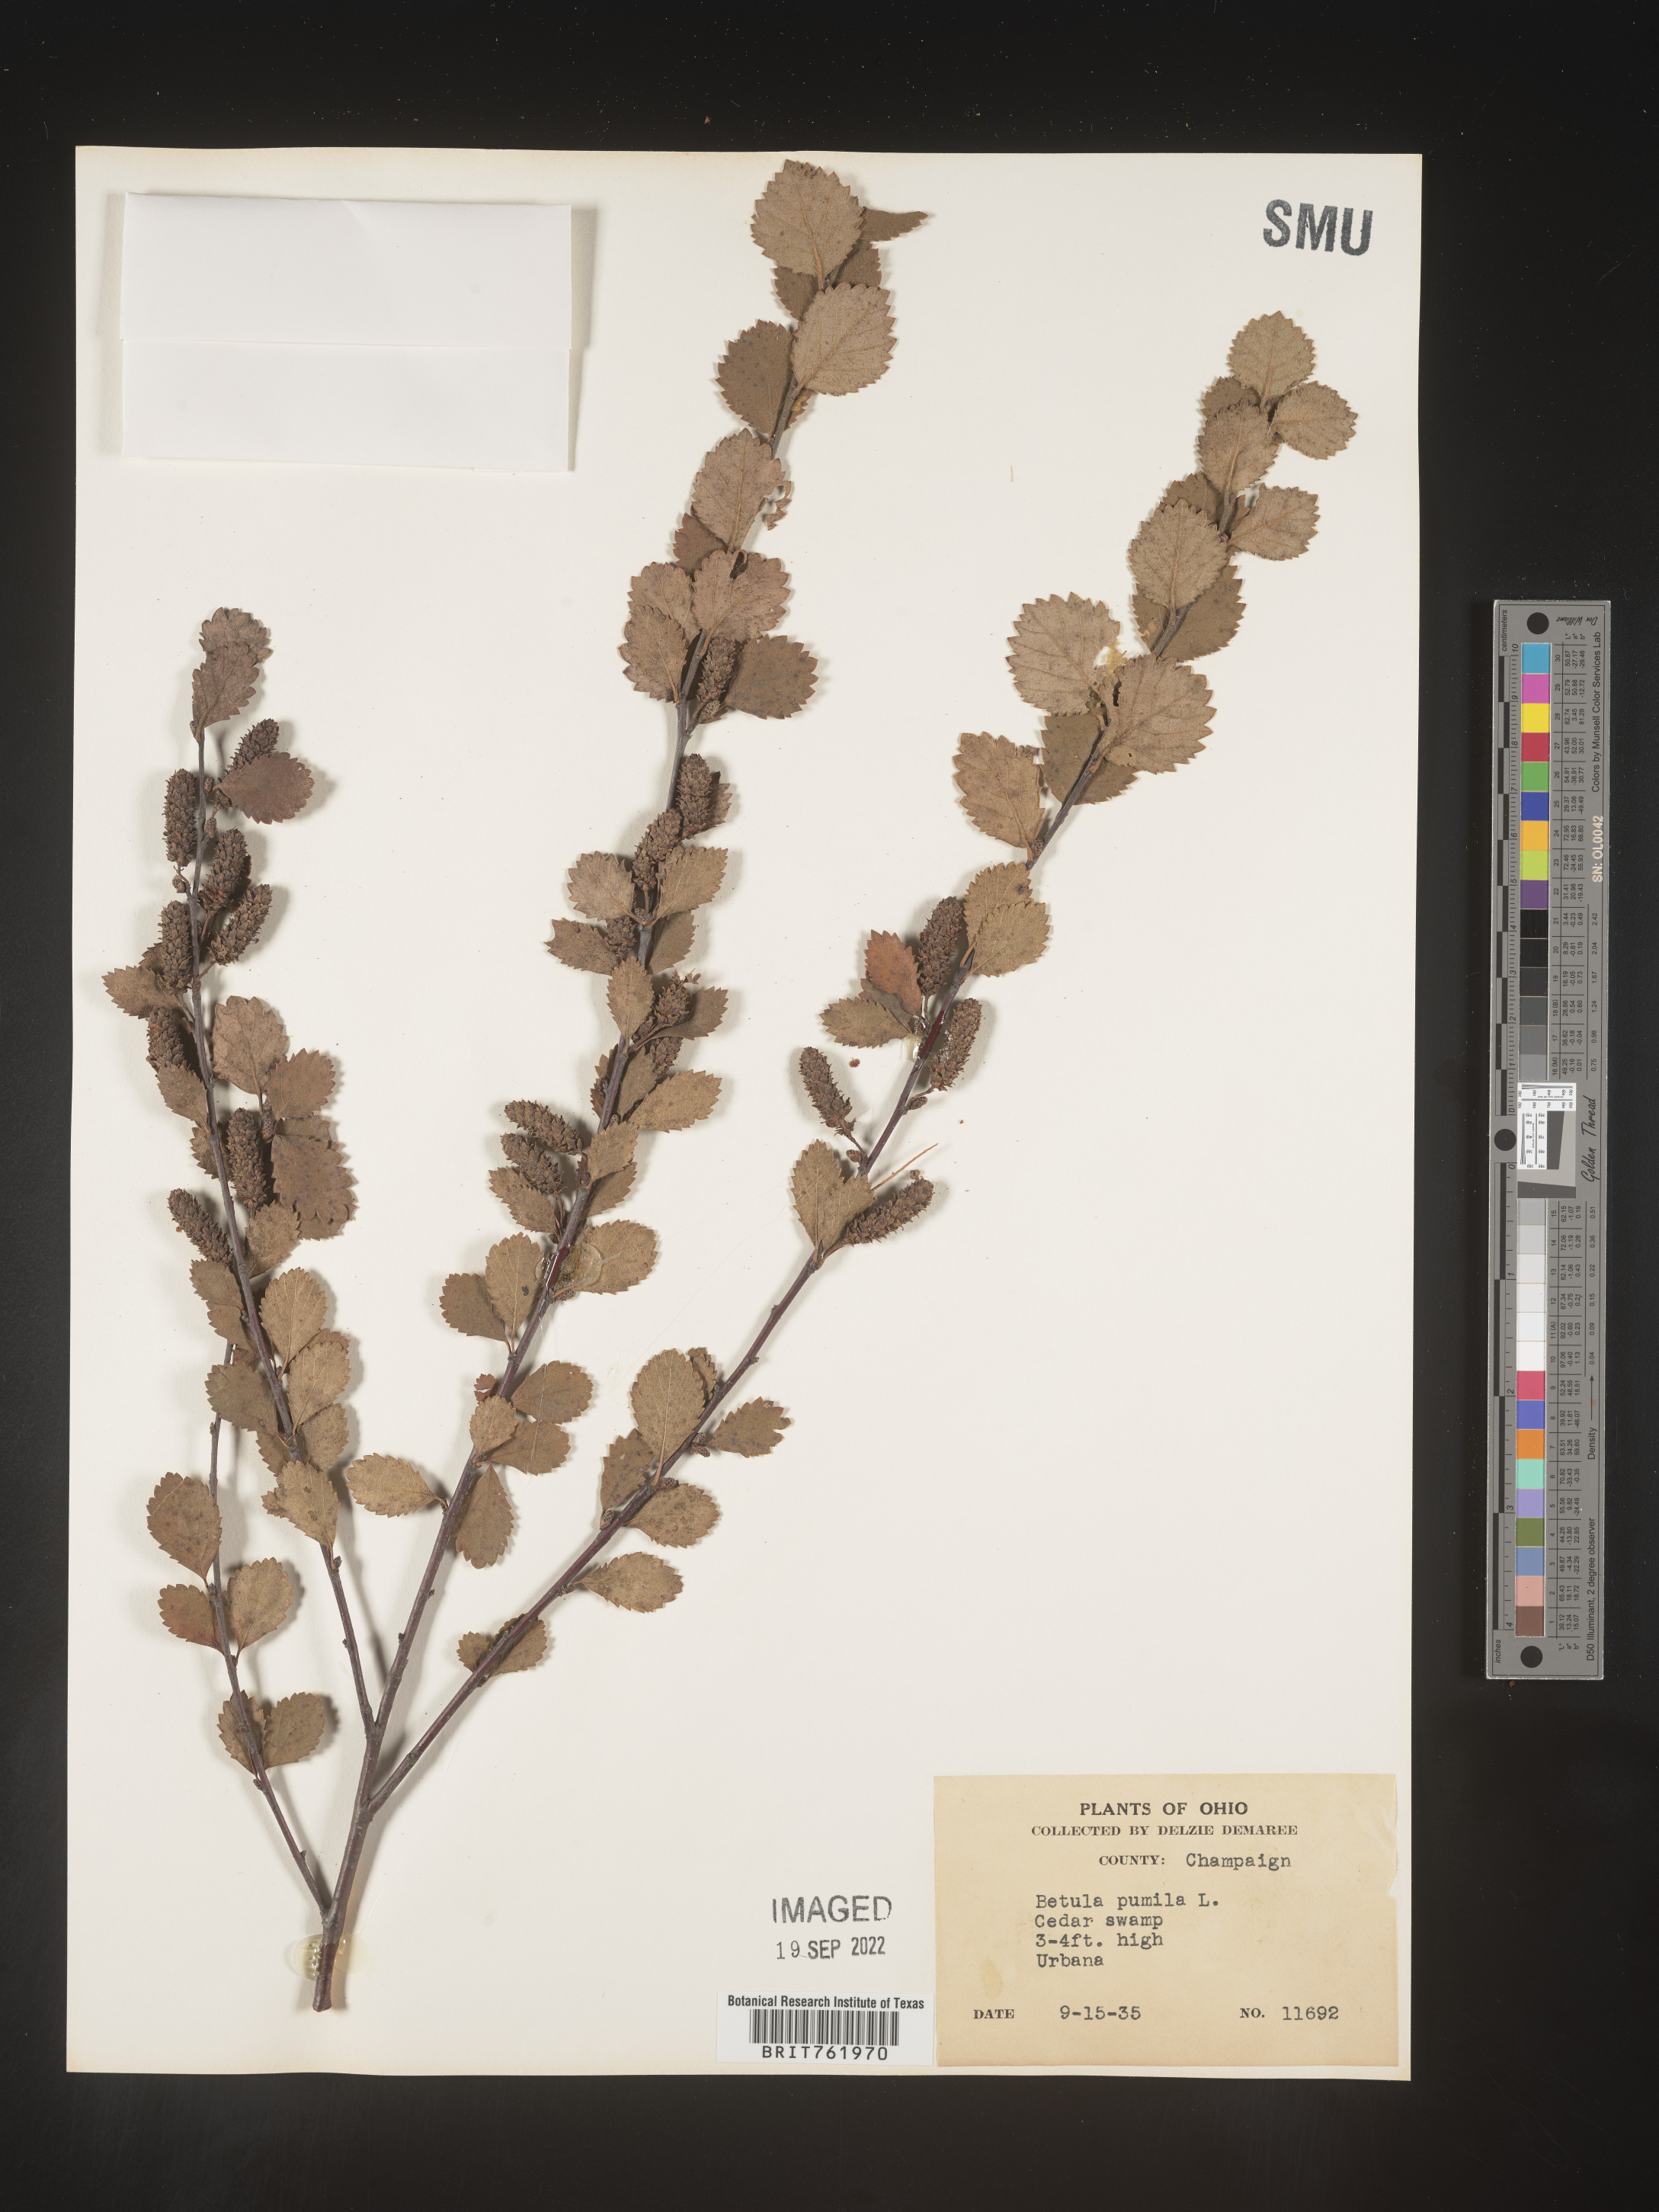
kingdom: Plantae
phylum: Tracheophyta
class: Magnoliopsida
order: Fagales
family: Betulaceae
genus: Betula
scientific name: Betula pumila
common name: Bog birch
